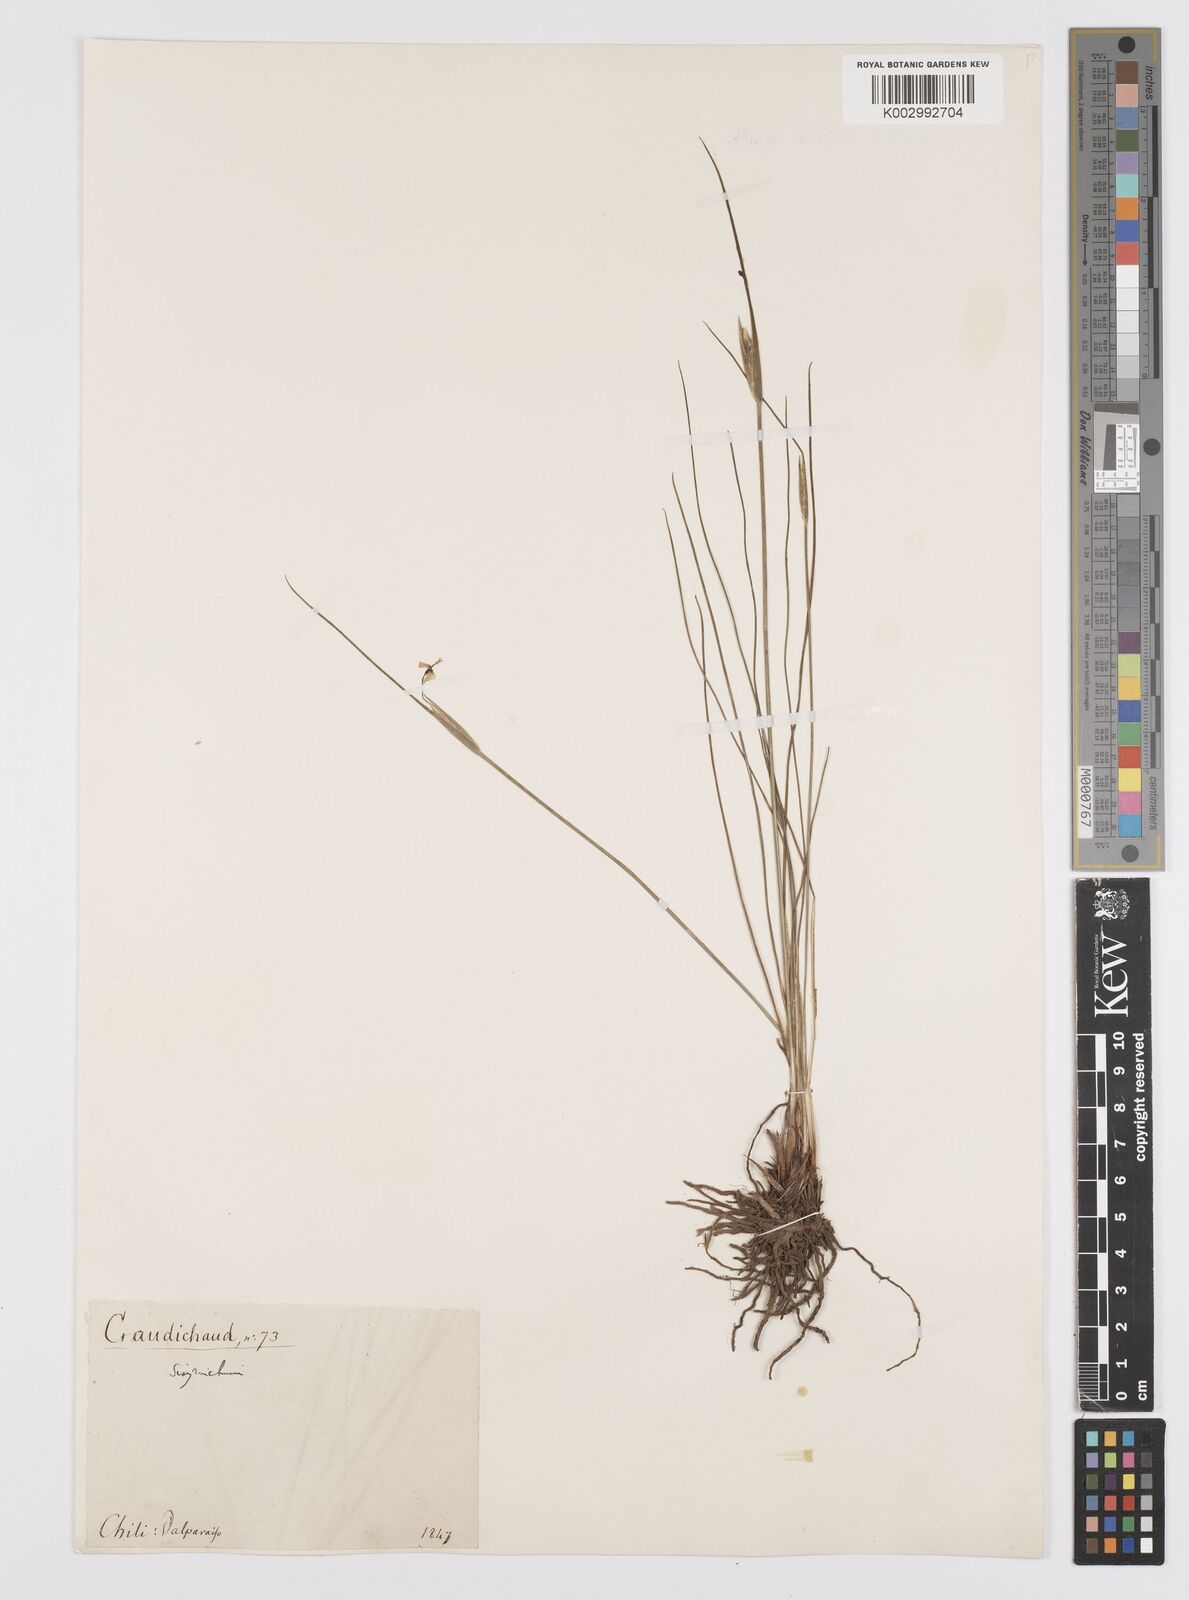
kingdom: Plantae
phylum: Tracheophyta
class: Liliopsida
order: Asparagales
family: Iridaceae
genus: Olsynium
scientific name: Olsynium scirpoideum
